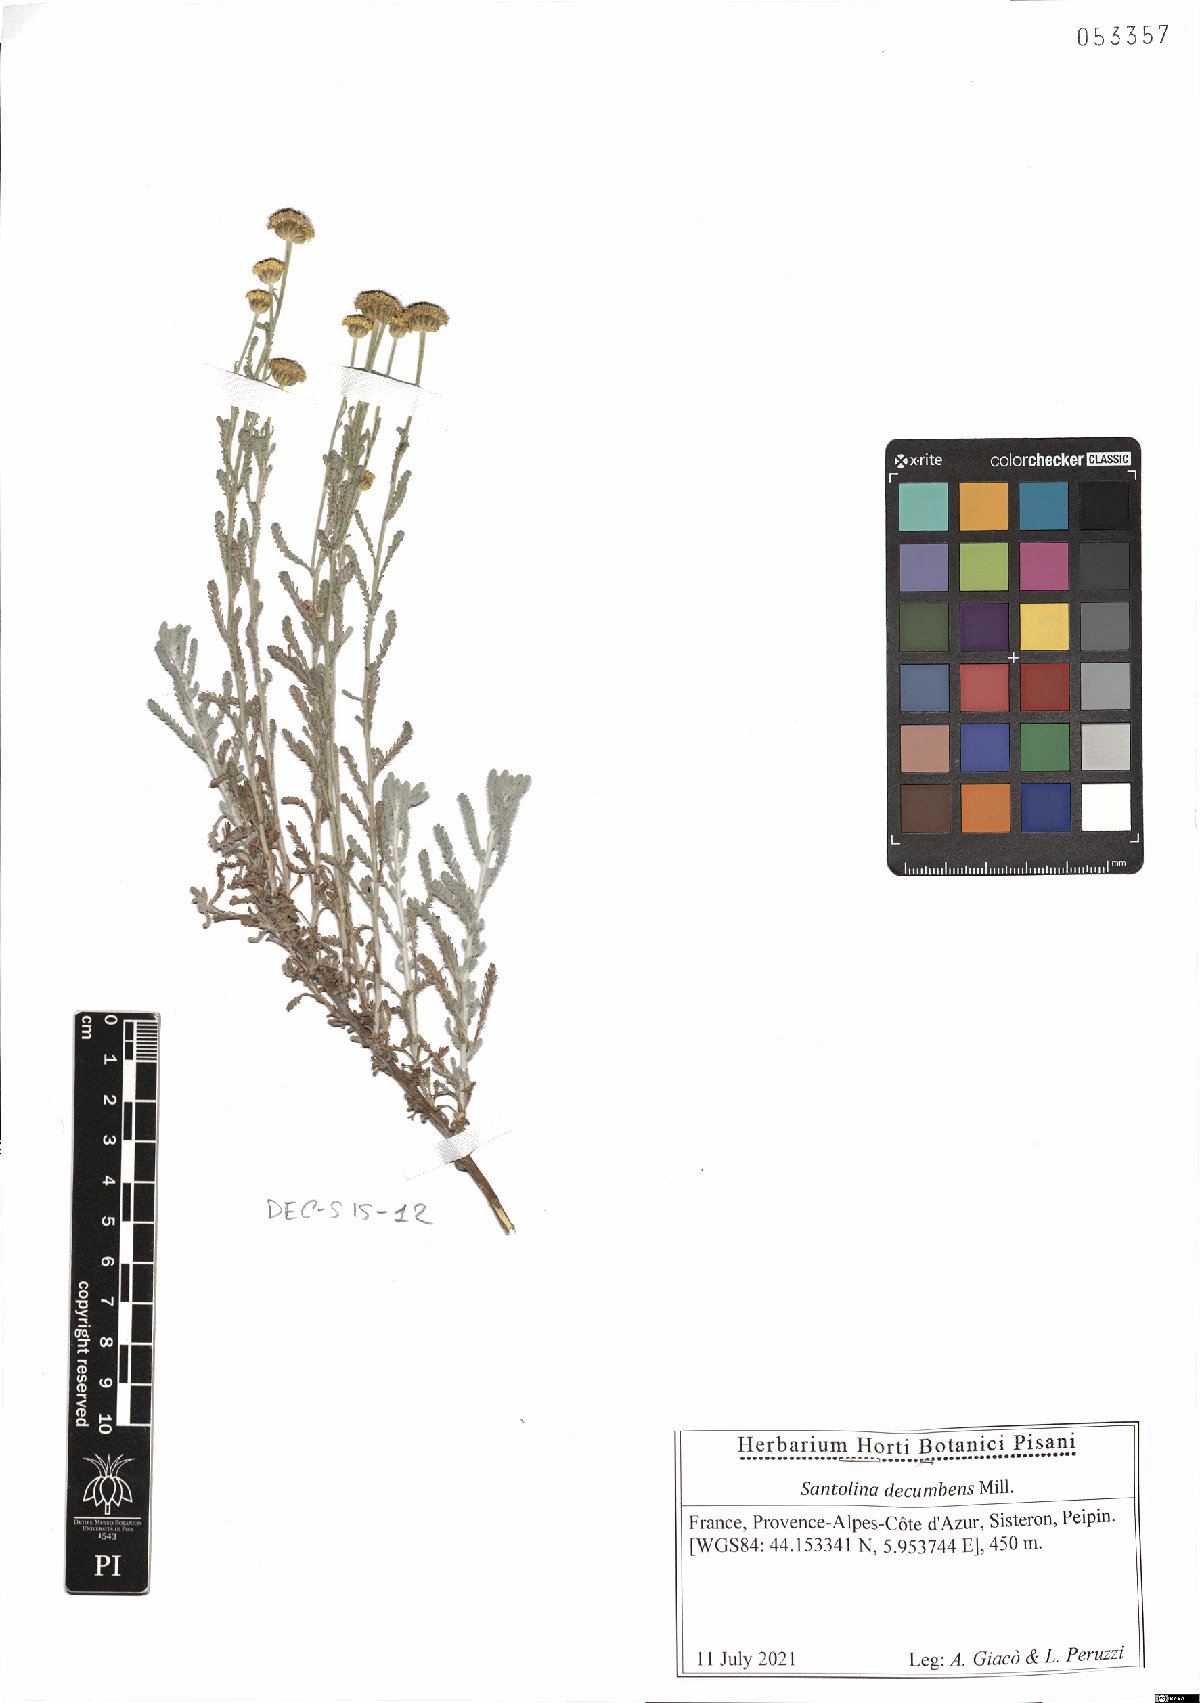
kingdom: Plantae
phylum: Tracheophyta
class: Magnoliopsida
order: Asterales
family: Asteraceae
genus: Santolina
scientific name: Santolina decumbens
